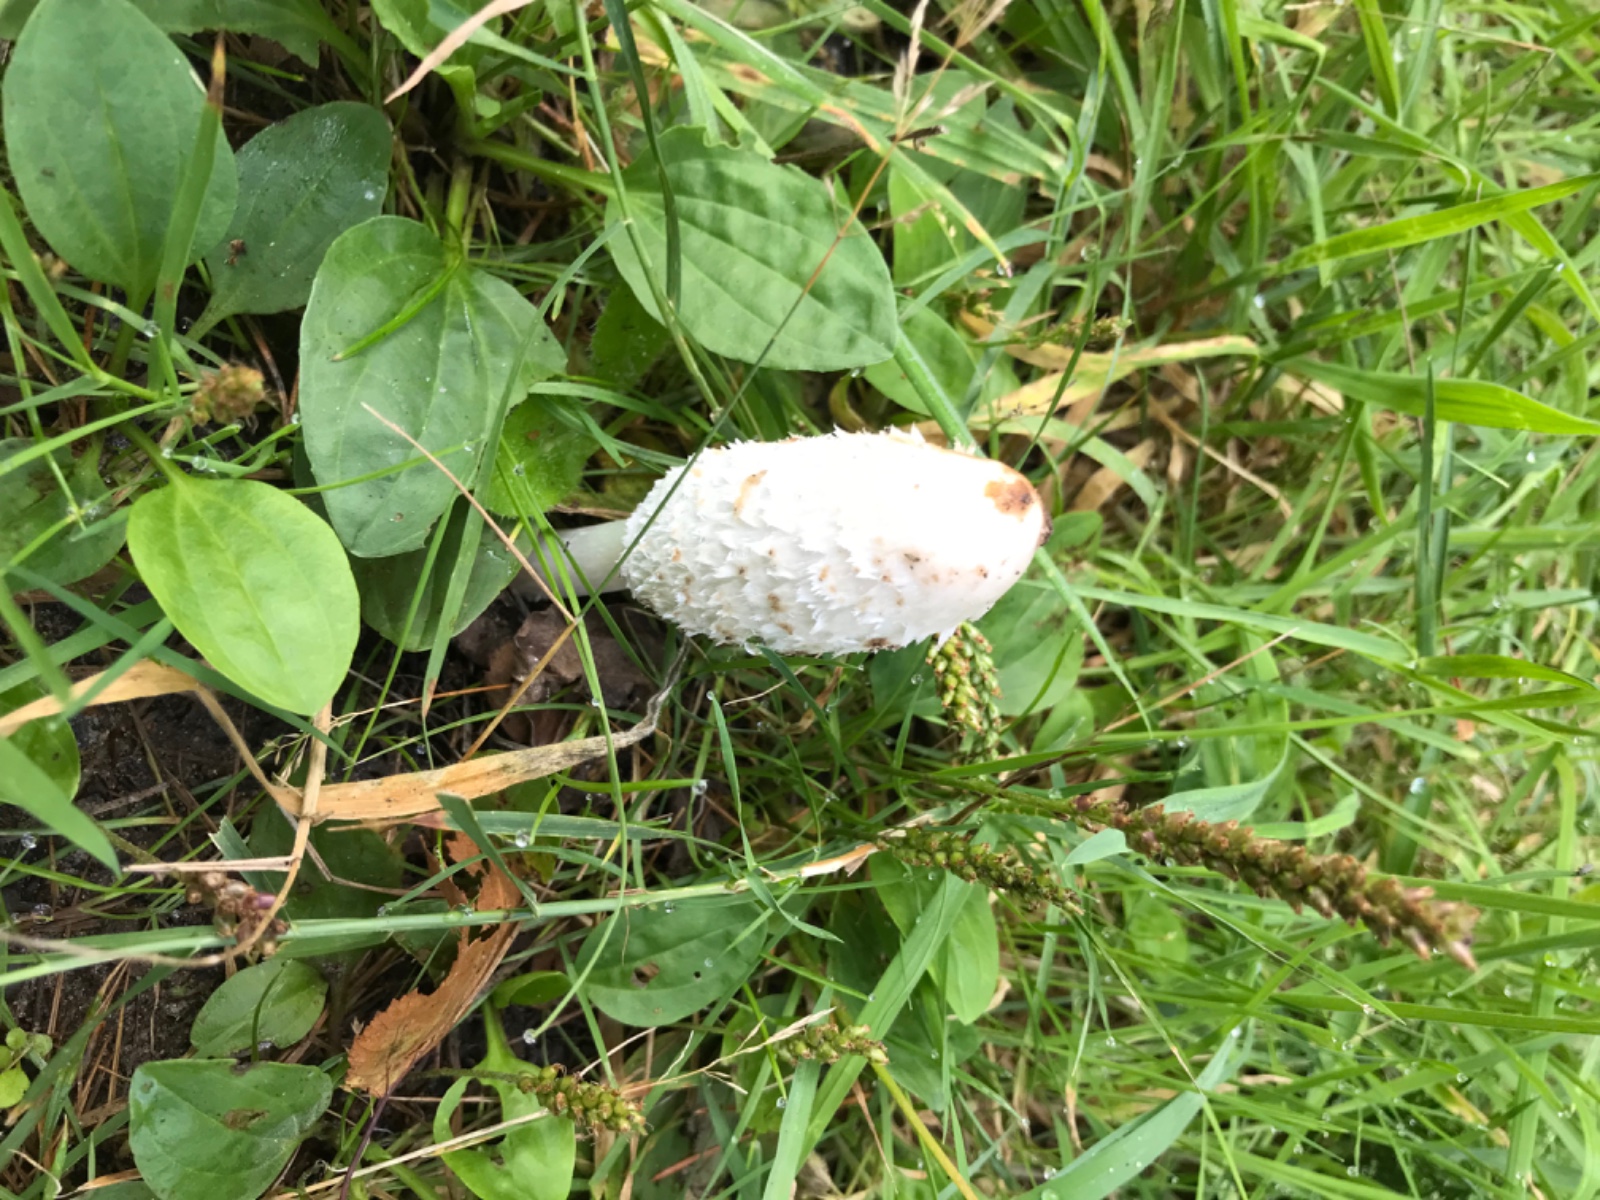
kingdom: Fungi
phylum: Basidiomycota
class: Agaricomycetes
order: Agaricales
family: Agaricaceae
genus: Coprinus
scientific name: Coprinus comatus
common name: stor parykhat
